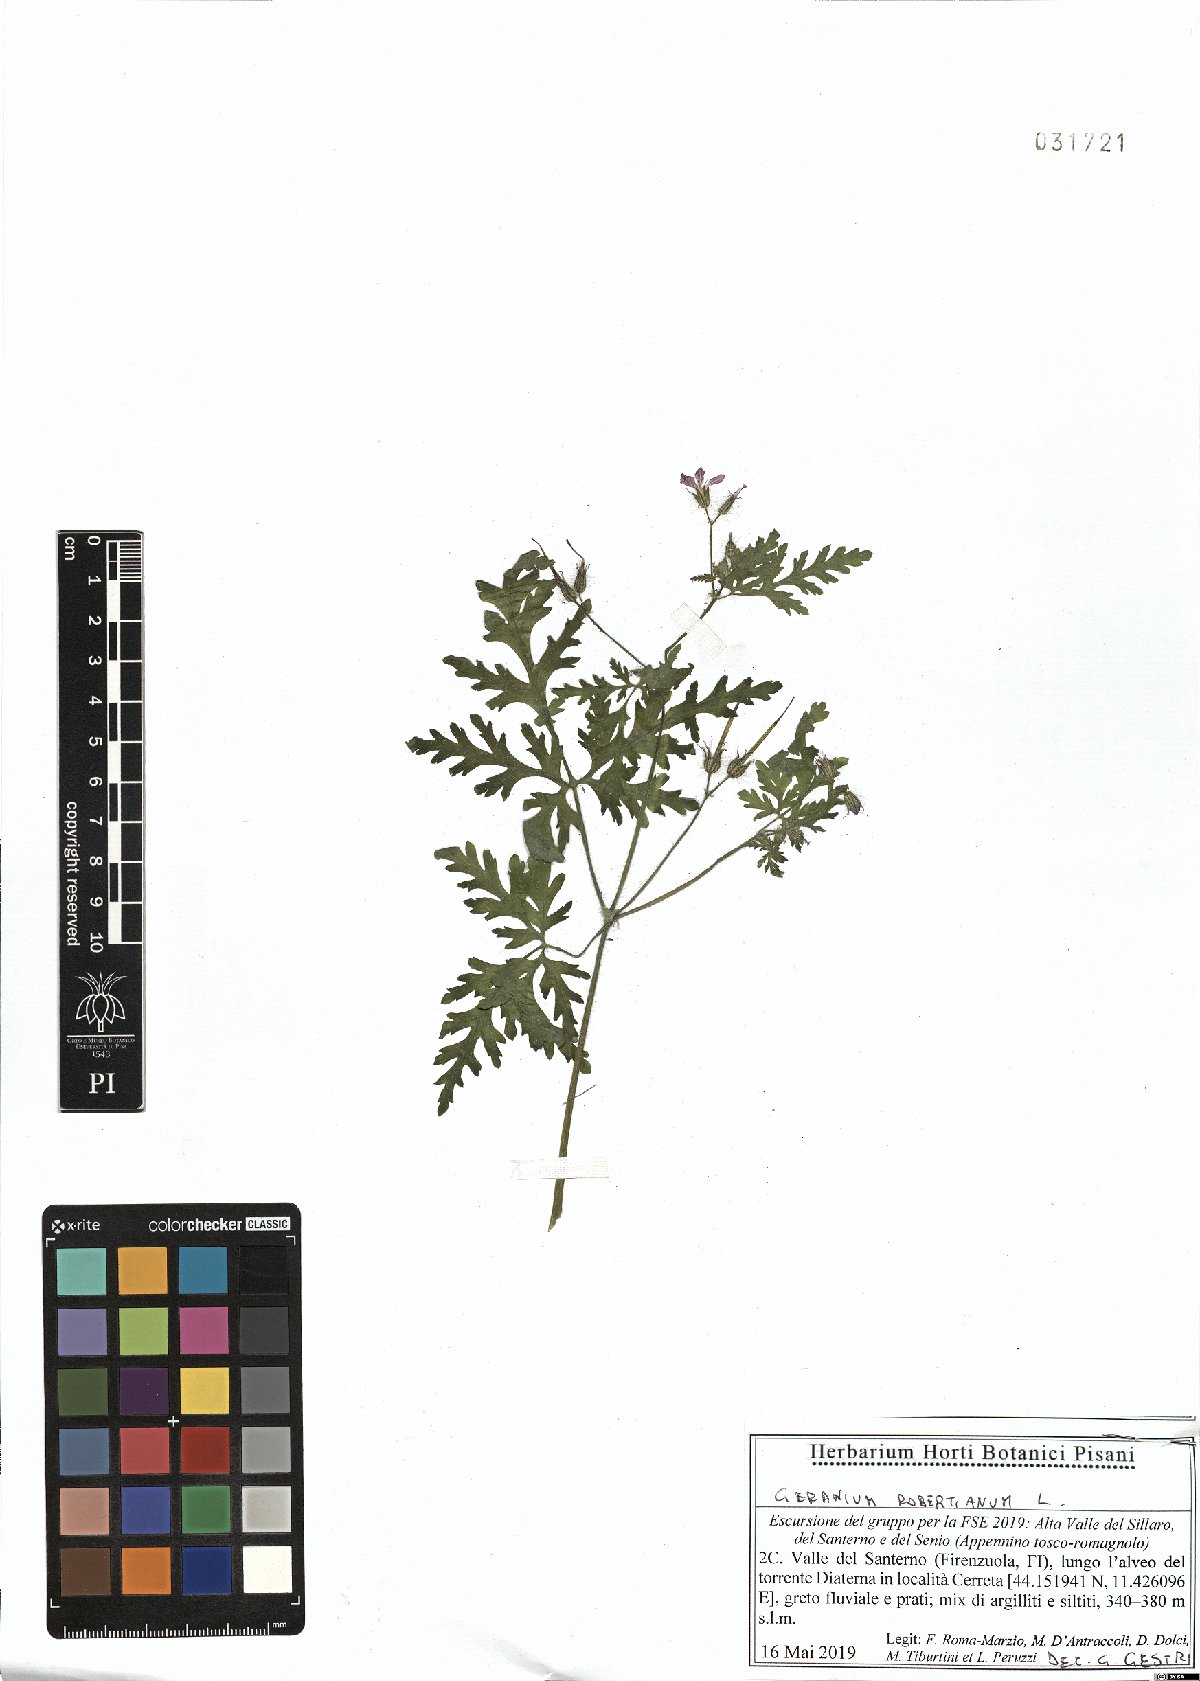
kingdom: Plantae
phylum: Tracheophyta
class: Magnoliopsida
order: Geraniales
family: Geraniaceae
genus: Geranium
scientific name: Geranium robertianum
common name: Herb-robert
